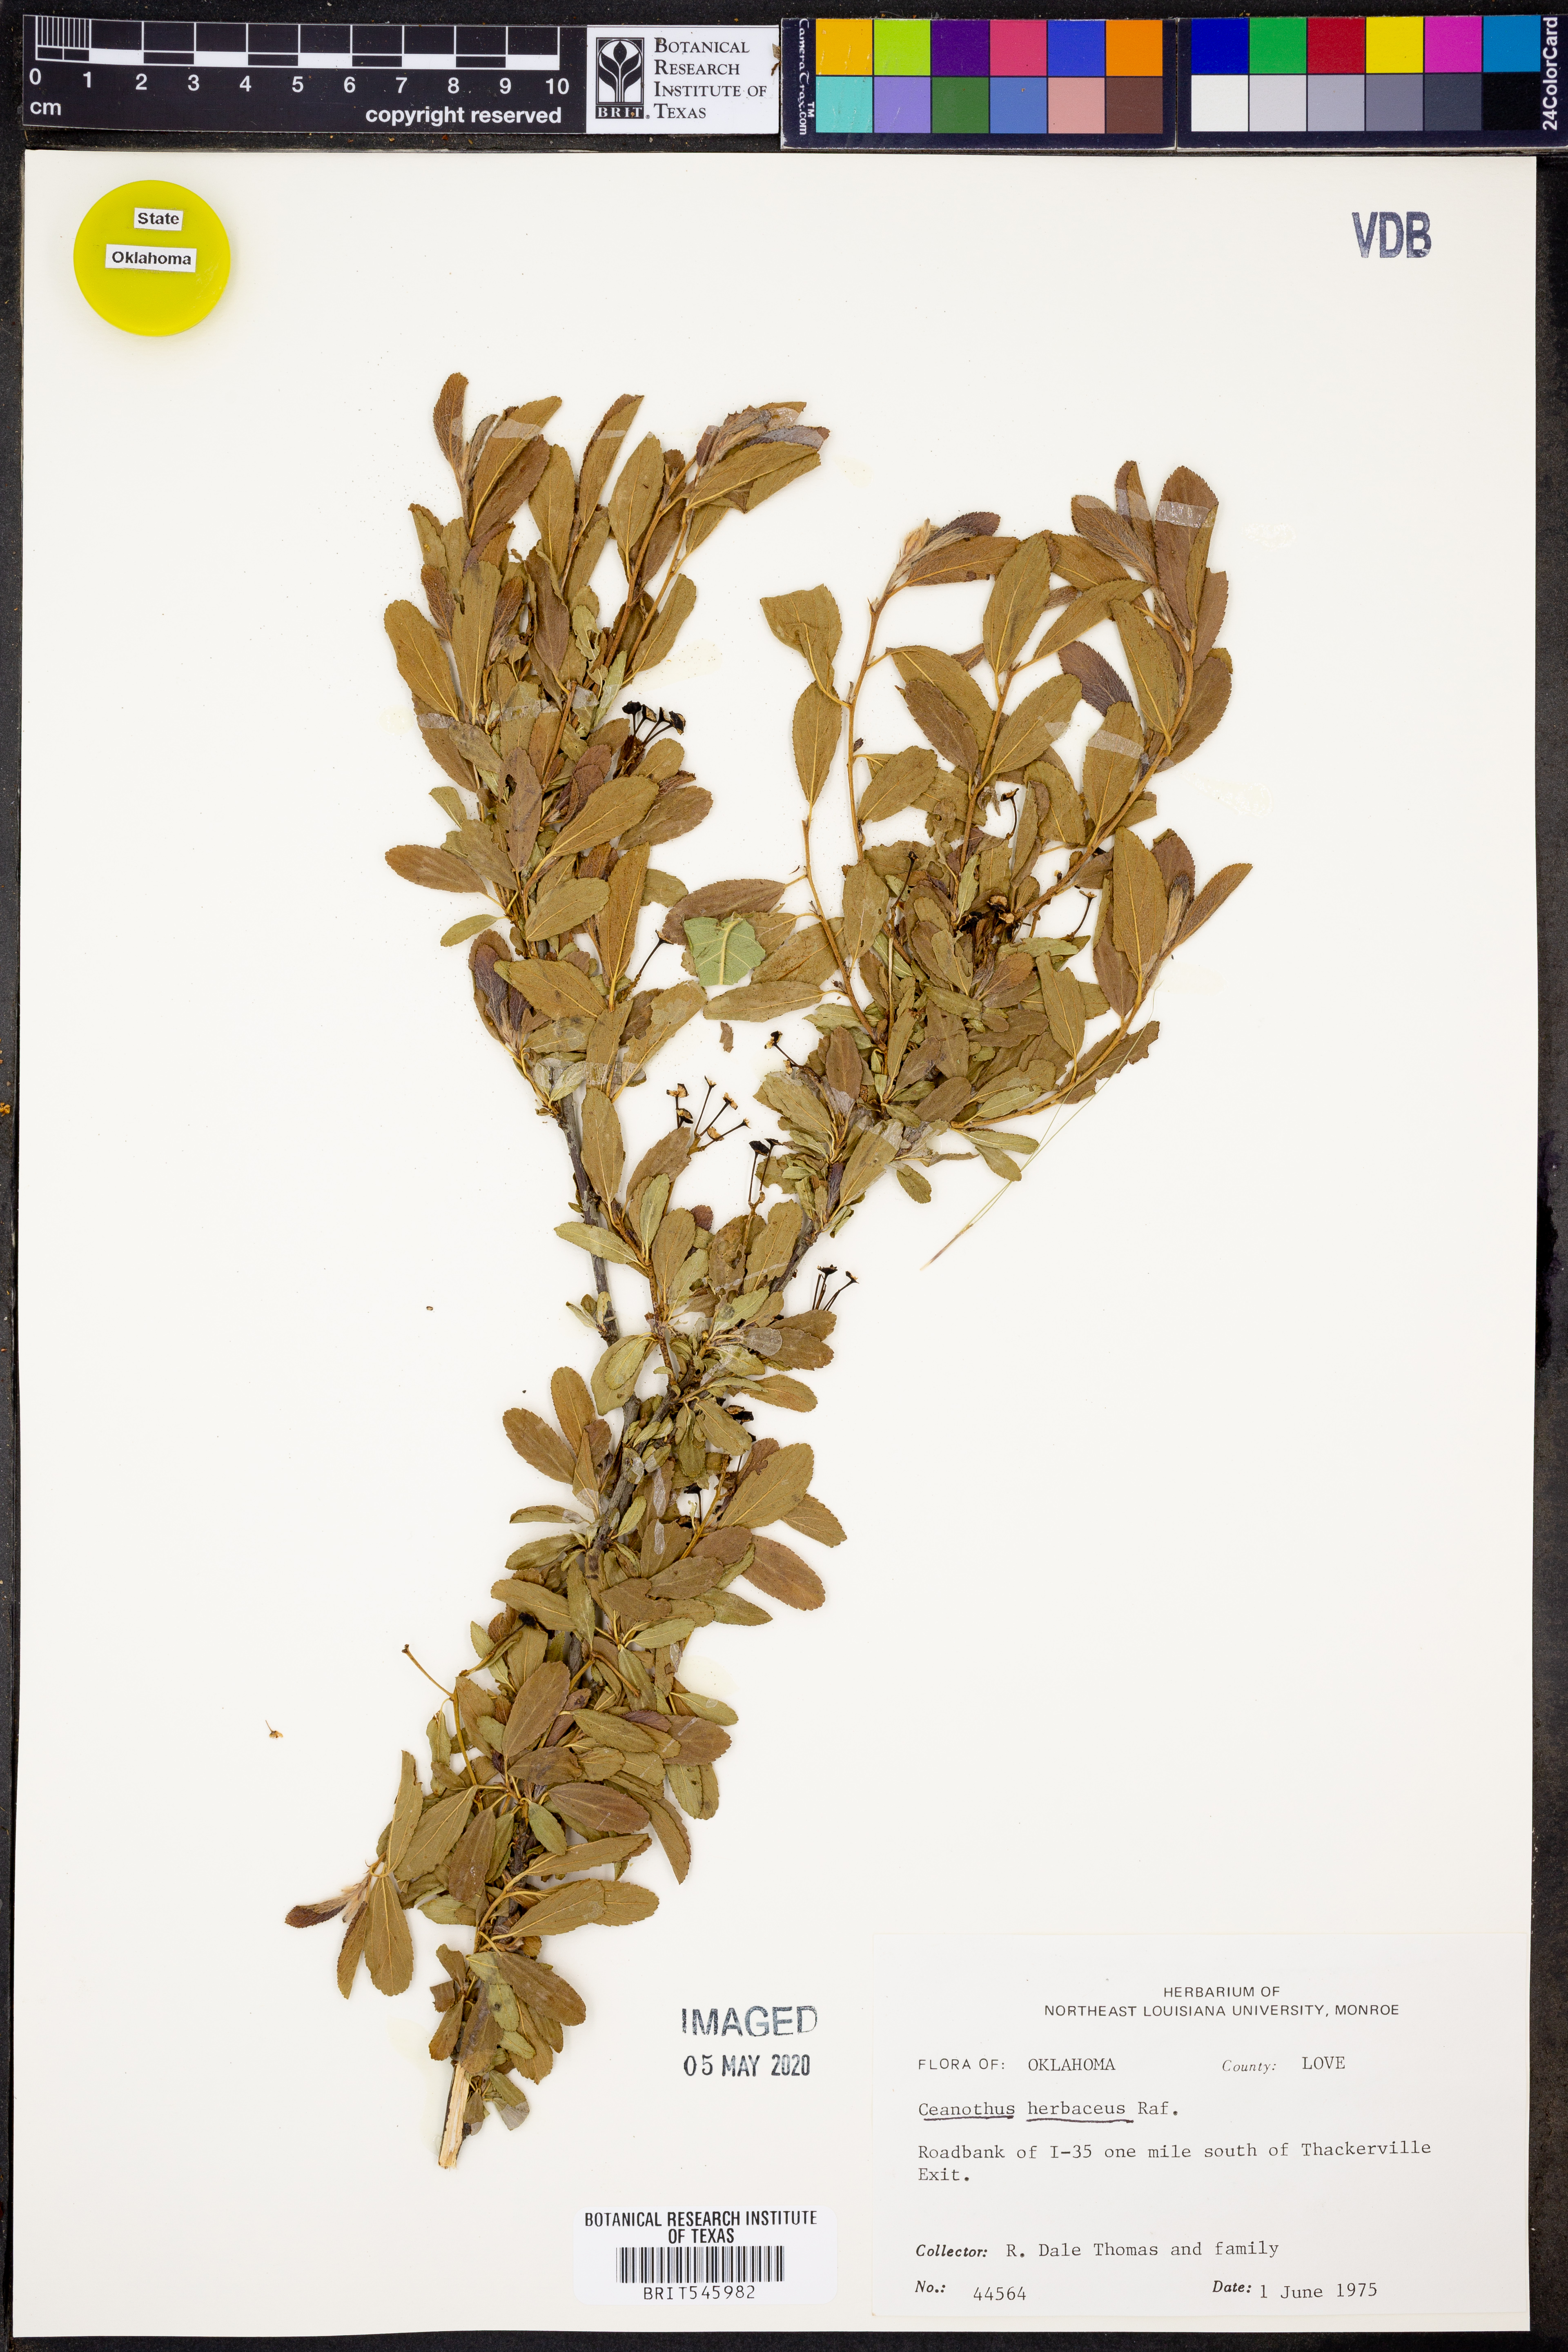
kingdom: Plantae
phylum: Tracheophyta
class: Magnoliopsida
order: Rosales
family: Rhamnaceae
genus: Ceanothus
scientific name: Ceanothus herbaceus
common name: Inland ceanothus
